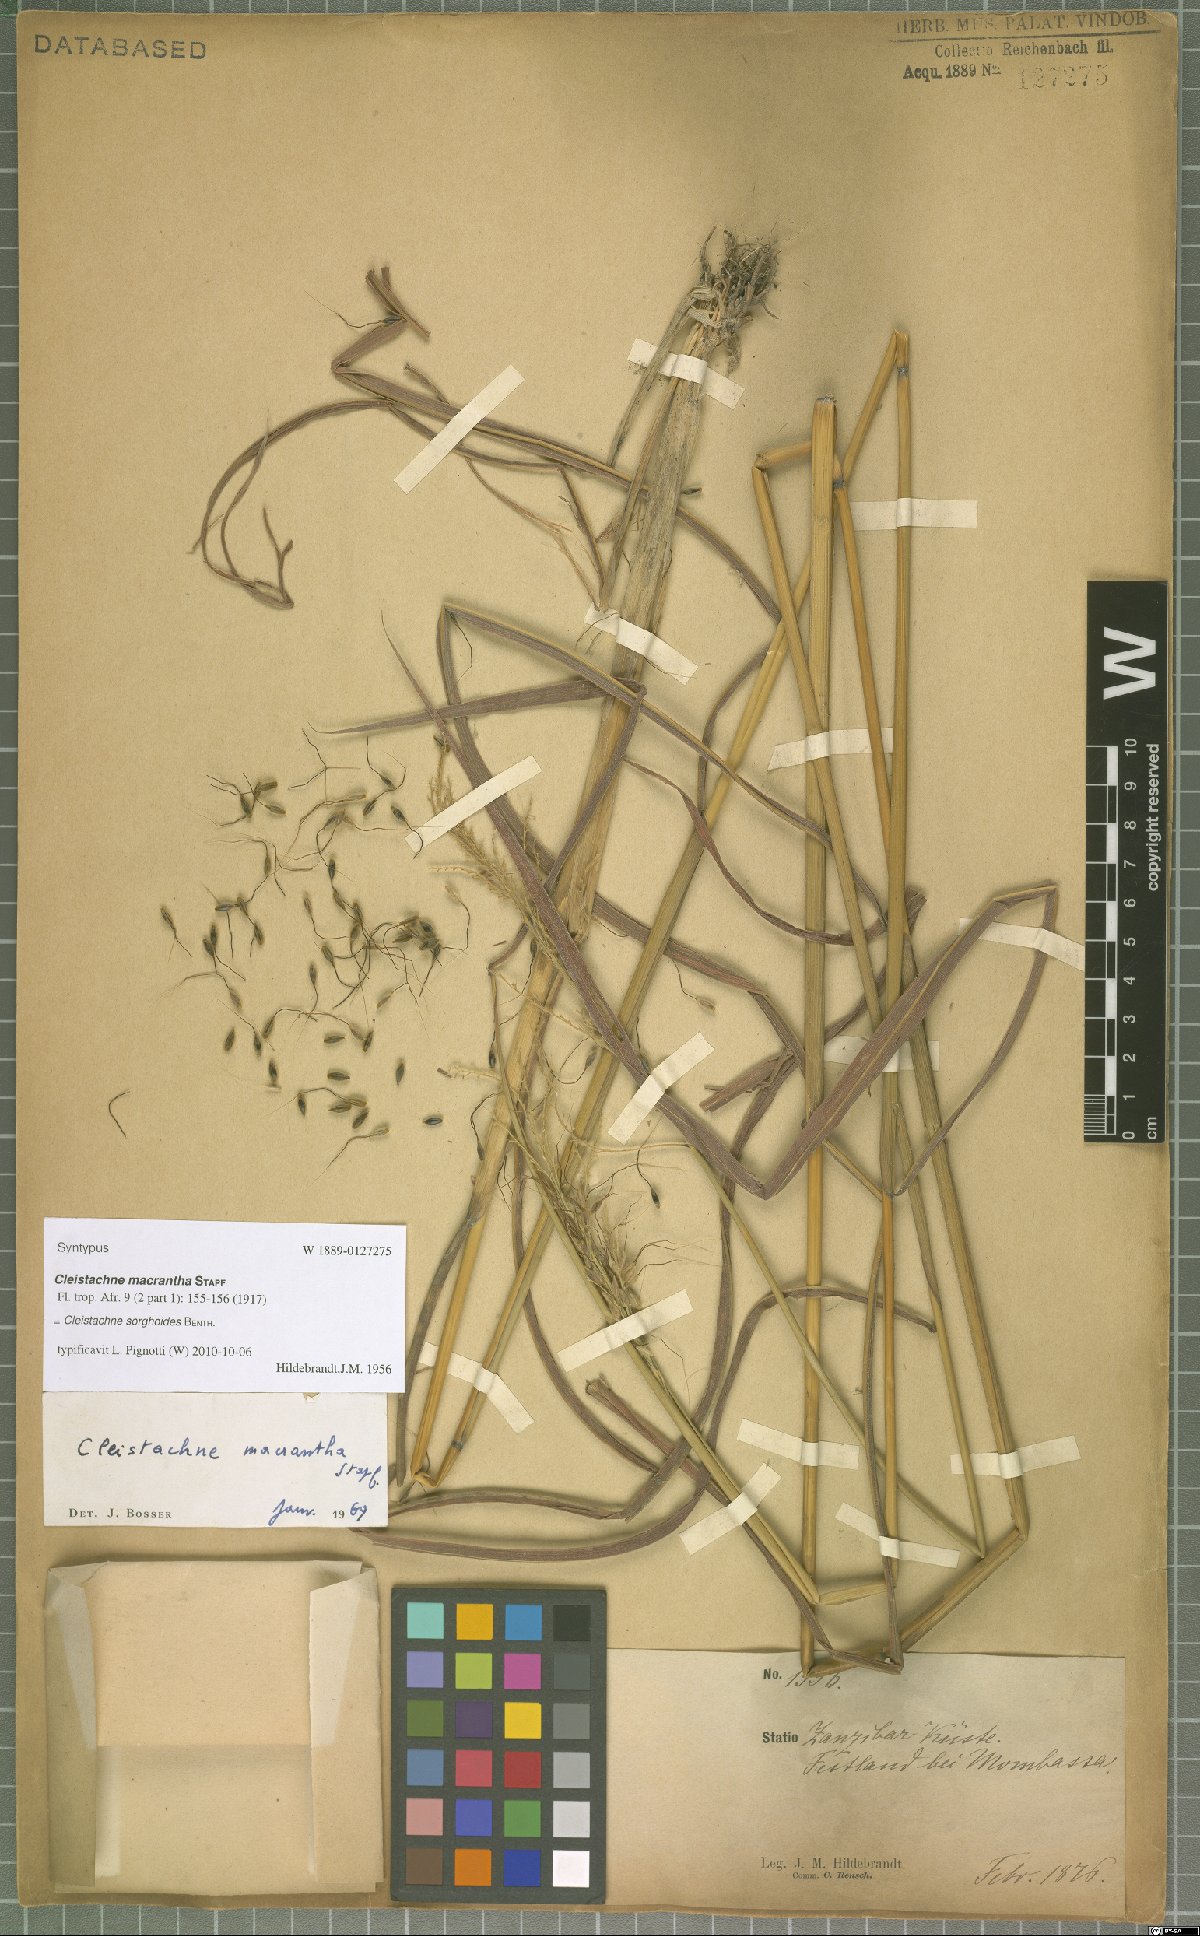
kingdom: Plantae
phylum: Tracheophyta
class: Liliopsida
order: Poales
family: Poaceae
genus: Cleistachne
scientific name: Cleistachne sorghoides
